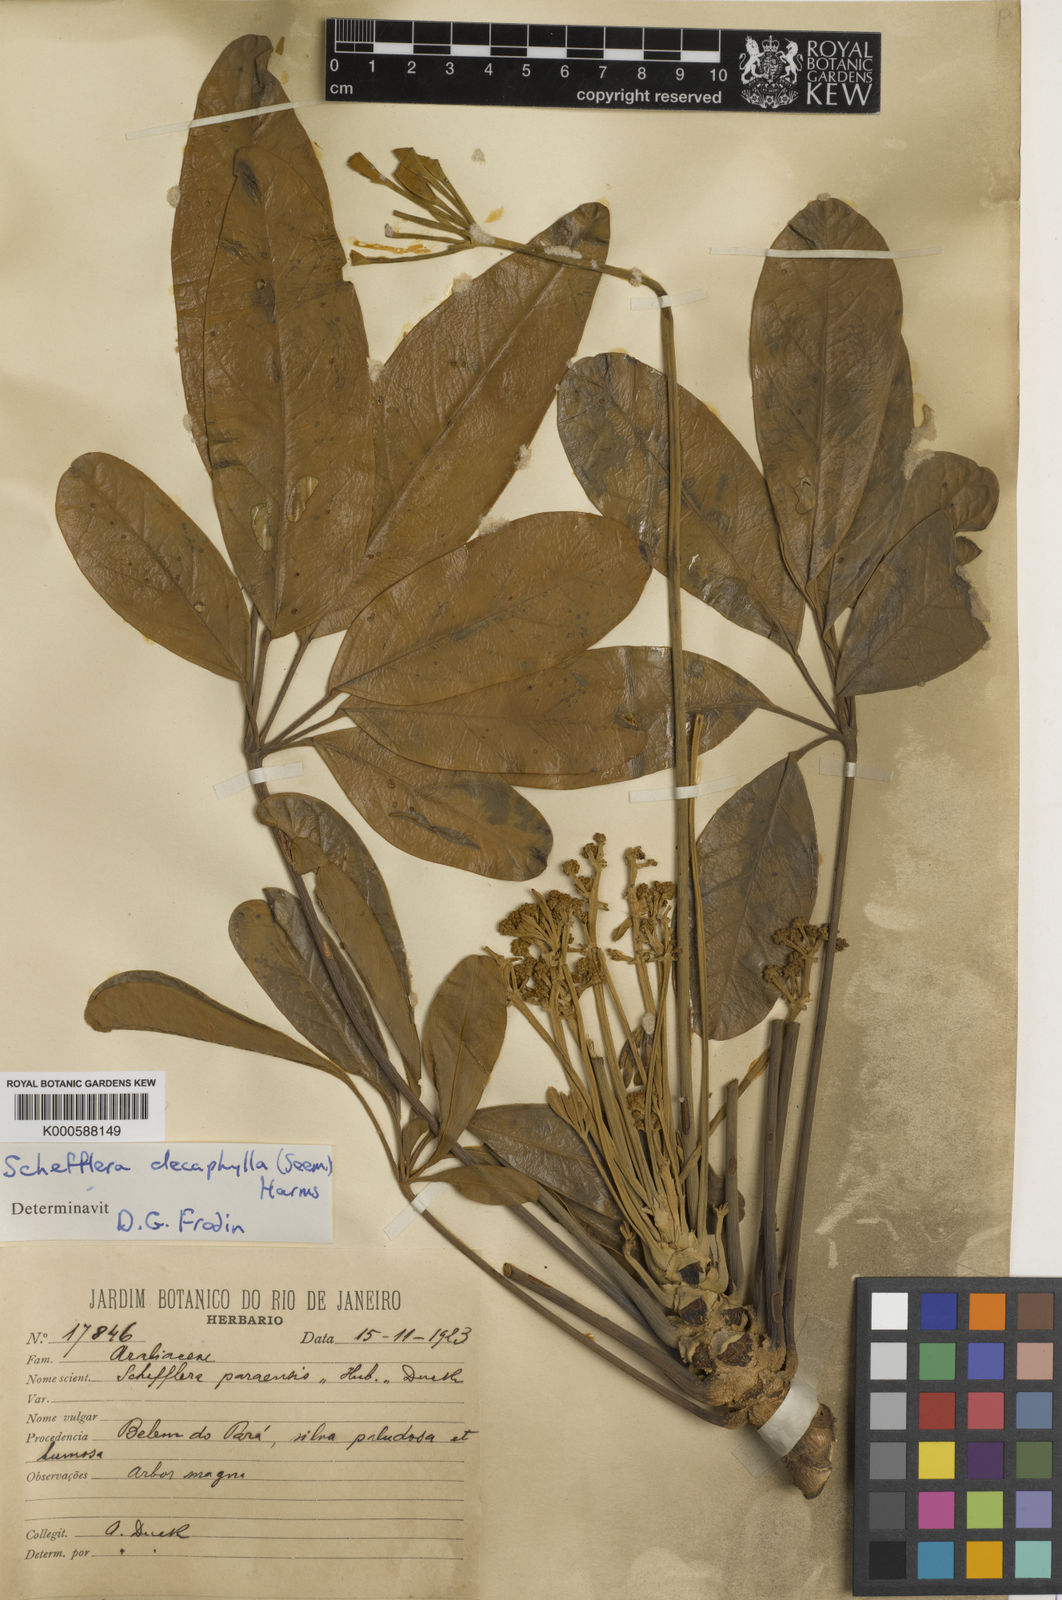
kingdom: Plantae
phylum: Tracheophyta
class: Magnoliopsida
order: Apiales
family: Araliaceae
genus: Didymopanax
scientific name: Didymopanax decaphyllus
